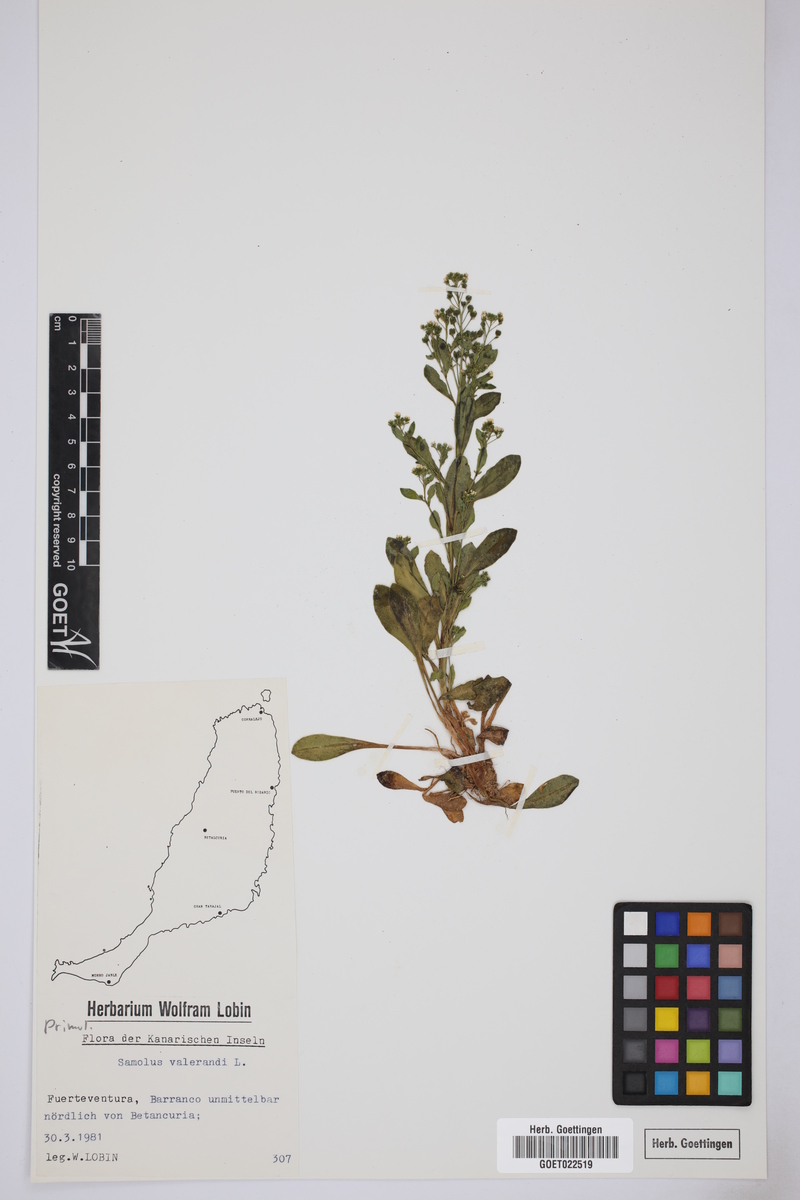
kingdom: Plantae
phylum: Tracheophyta
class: Magnoliopsida
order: Ericales
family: Primulaceae
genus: Samolus
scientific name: Samolus valerandi
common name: Brookweed
